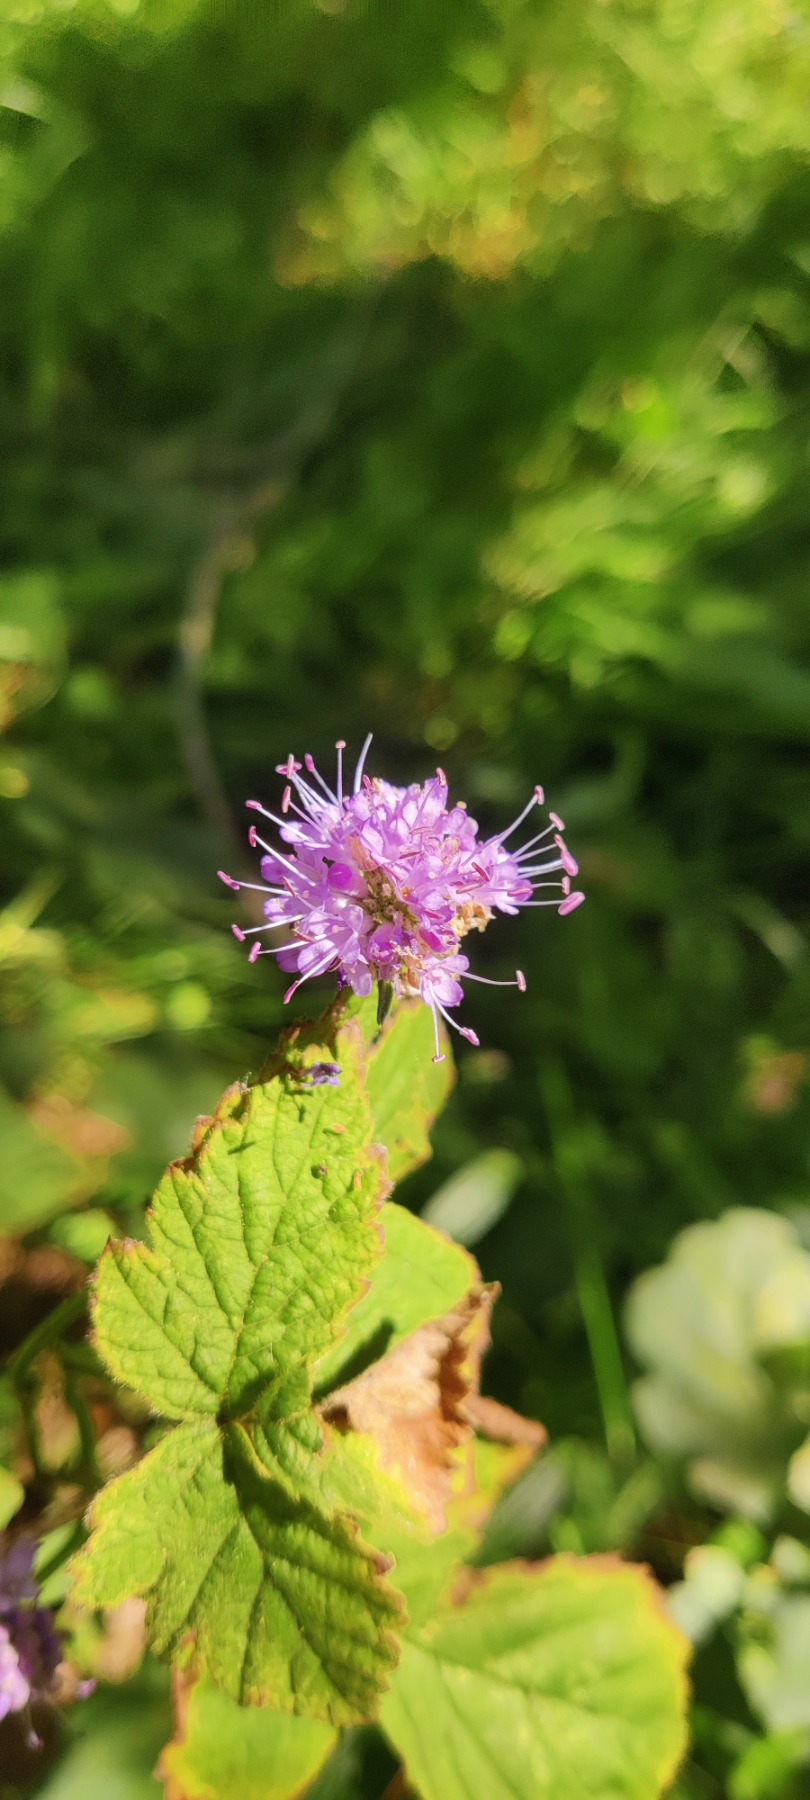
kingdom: Plantae
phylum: Tracheophyta
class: Magnoliopsida
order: Dipsacales
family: Caprifoliaceae
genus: Succisa
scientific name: Succisa pratensis
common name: Djævelsbid
